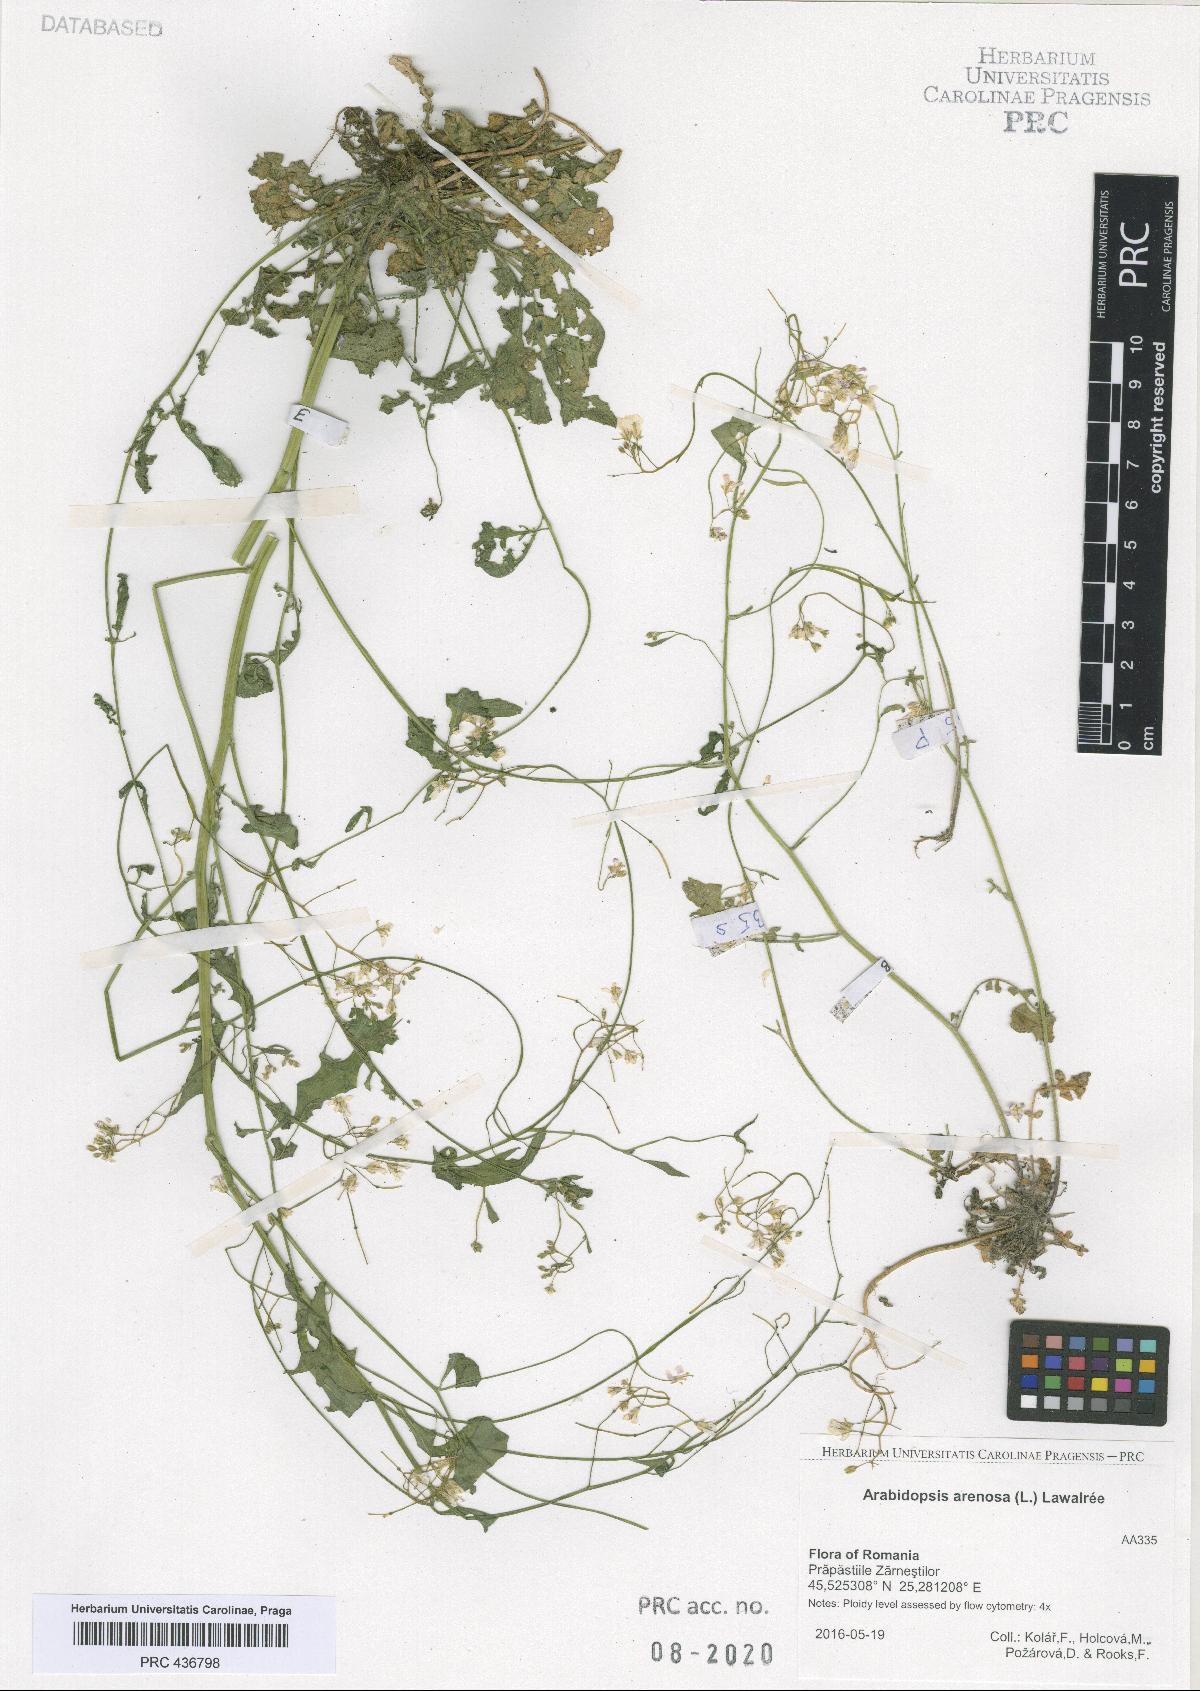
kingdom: Plantae
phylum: Tracheophyta
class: Magnoliopsida
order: Brassicales
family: Brassicaceae
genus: Arabidopsis
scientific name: Arabidopsis arenosa
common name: Sand rock-cress
